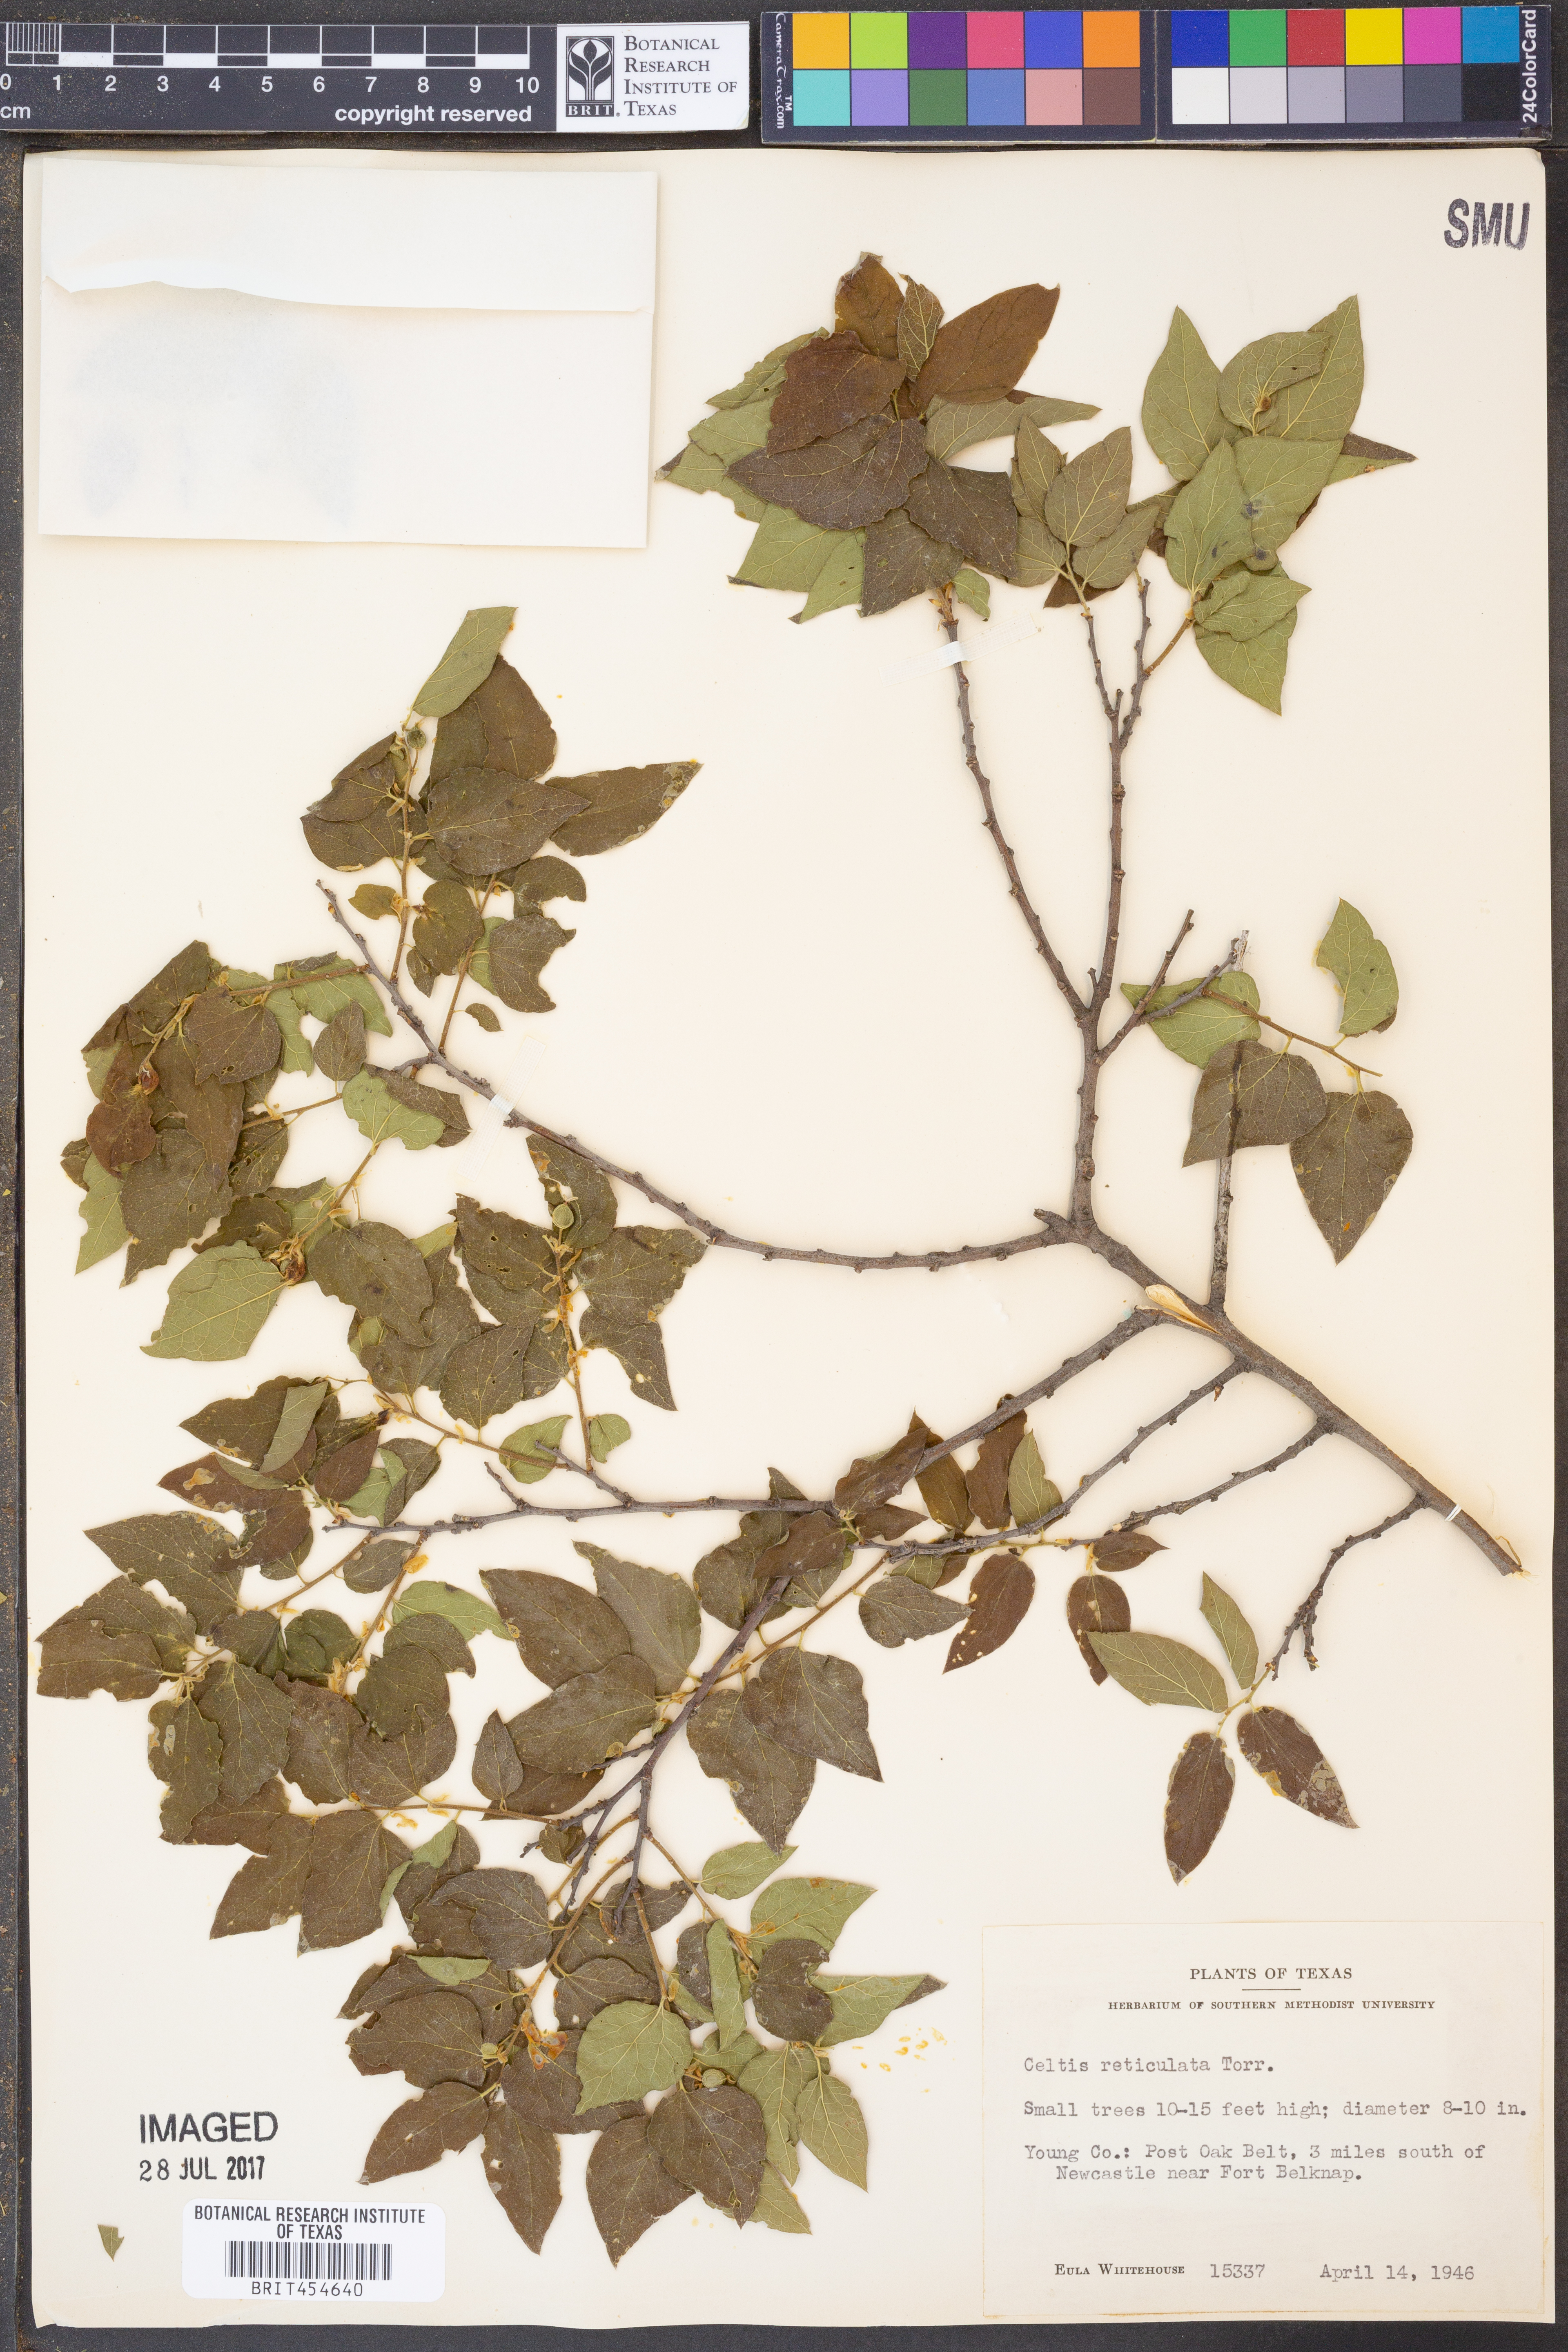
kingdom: Plantae
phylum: Tracheophyta
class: Magnoliopsida
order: Rosales
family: Cannabaceae
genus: Celtis
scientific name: Celtis reticulata
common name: Netleaf hackberry
